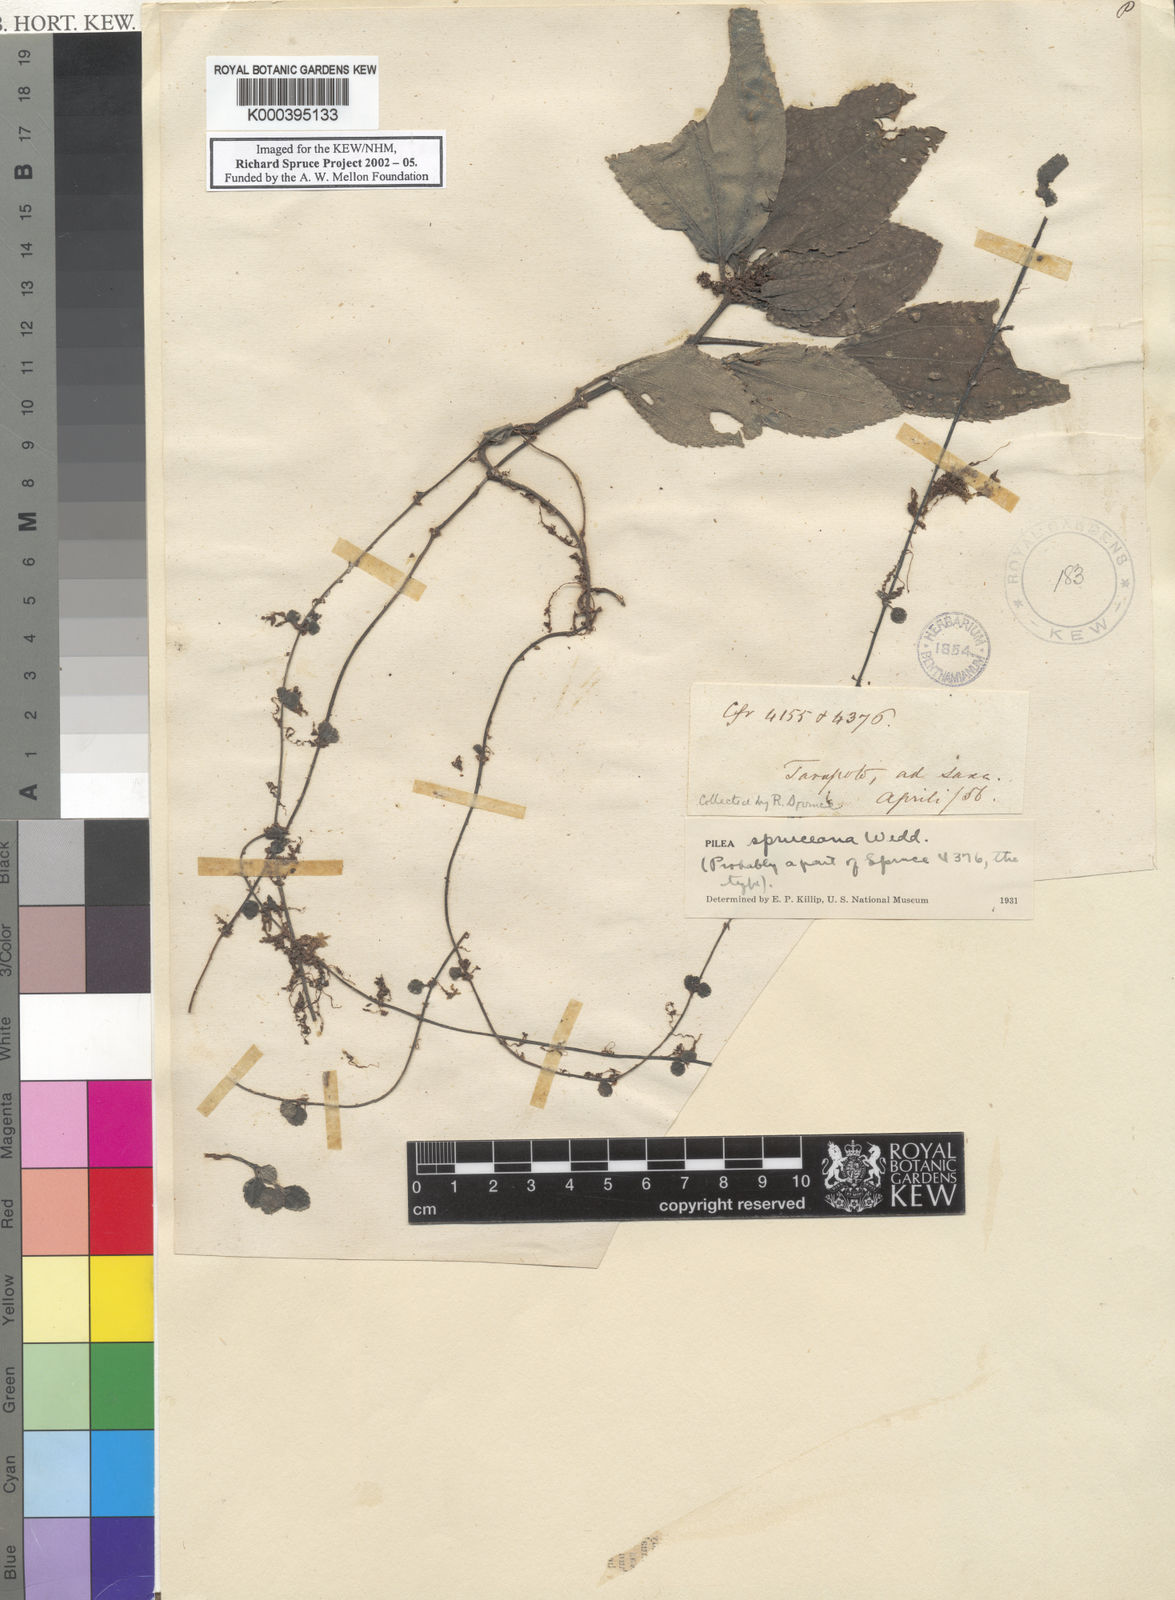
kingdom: Plantae
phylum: Tracheophyta
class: Magnoliopsida
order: Rosales
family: Urticaceae
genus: Pilea
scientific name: Pilea spruceana
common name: Clearweed
